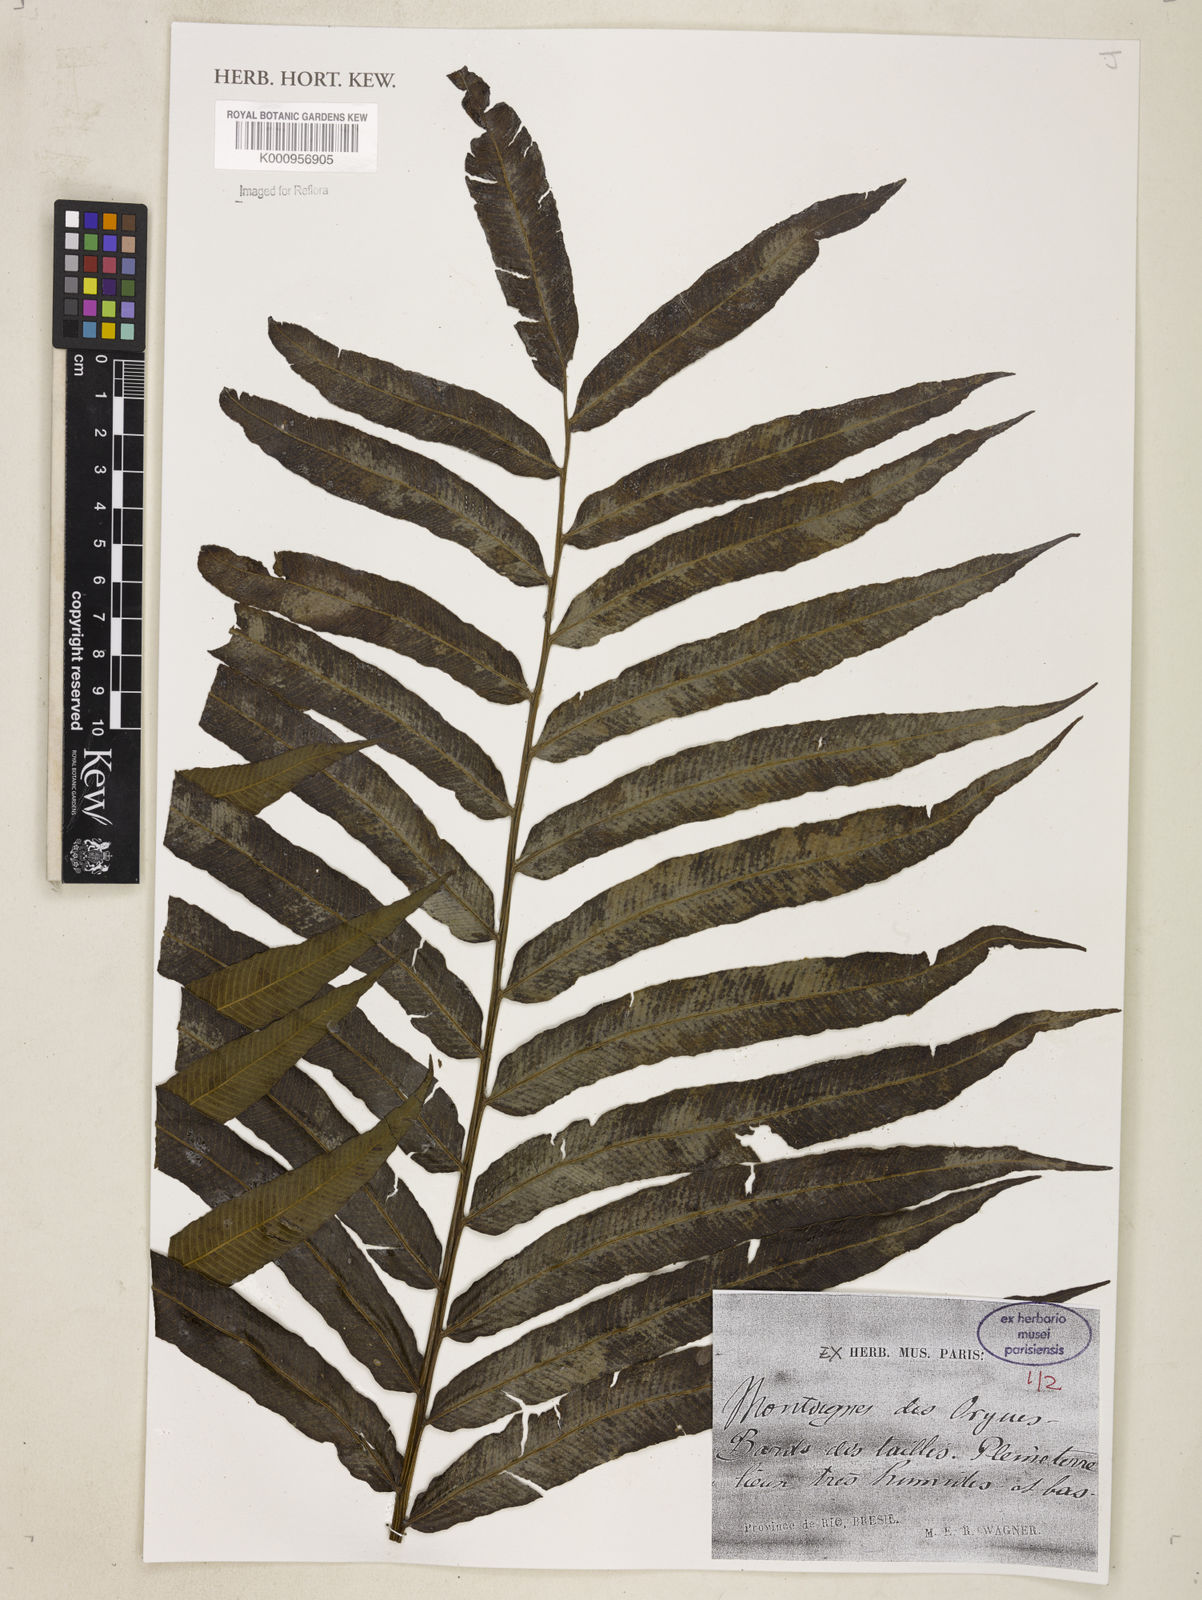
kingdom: Plantae
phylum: Tracheophyta
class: Polypodiopsida
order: Polypodiales
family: Thelypteridaceae
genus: Meniscium
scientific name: Meniscium
